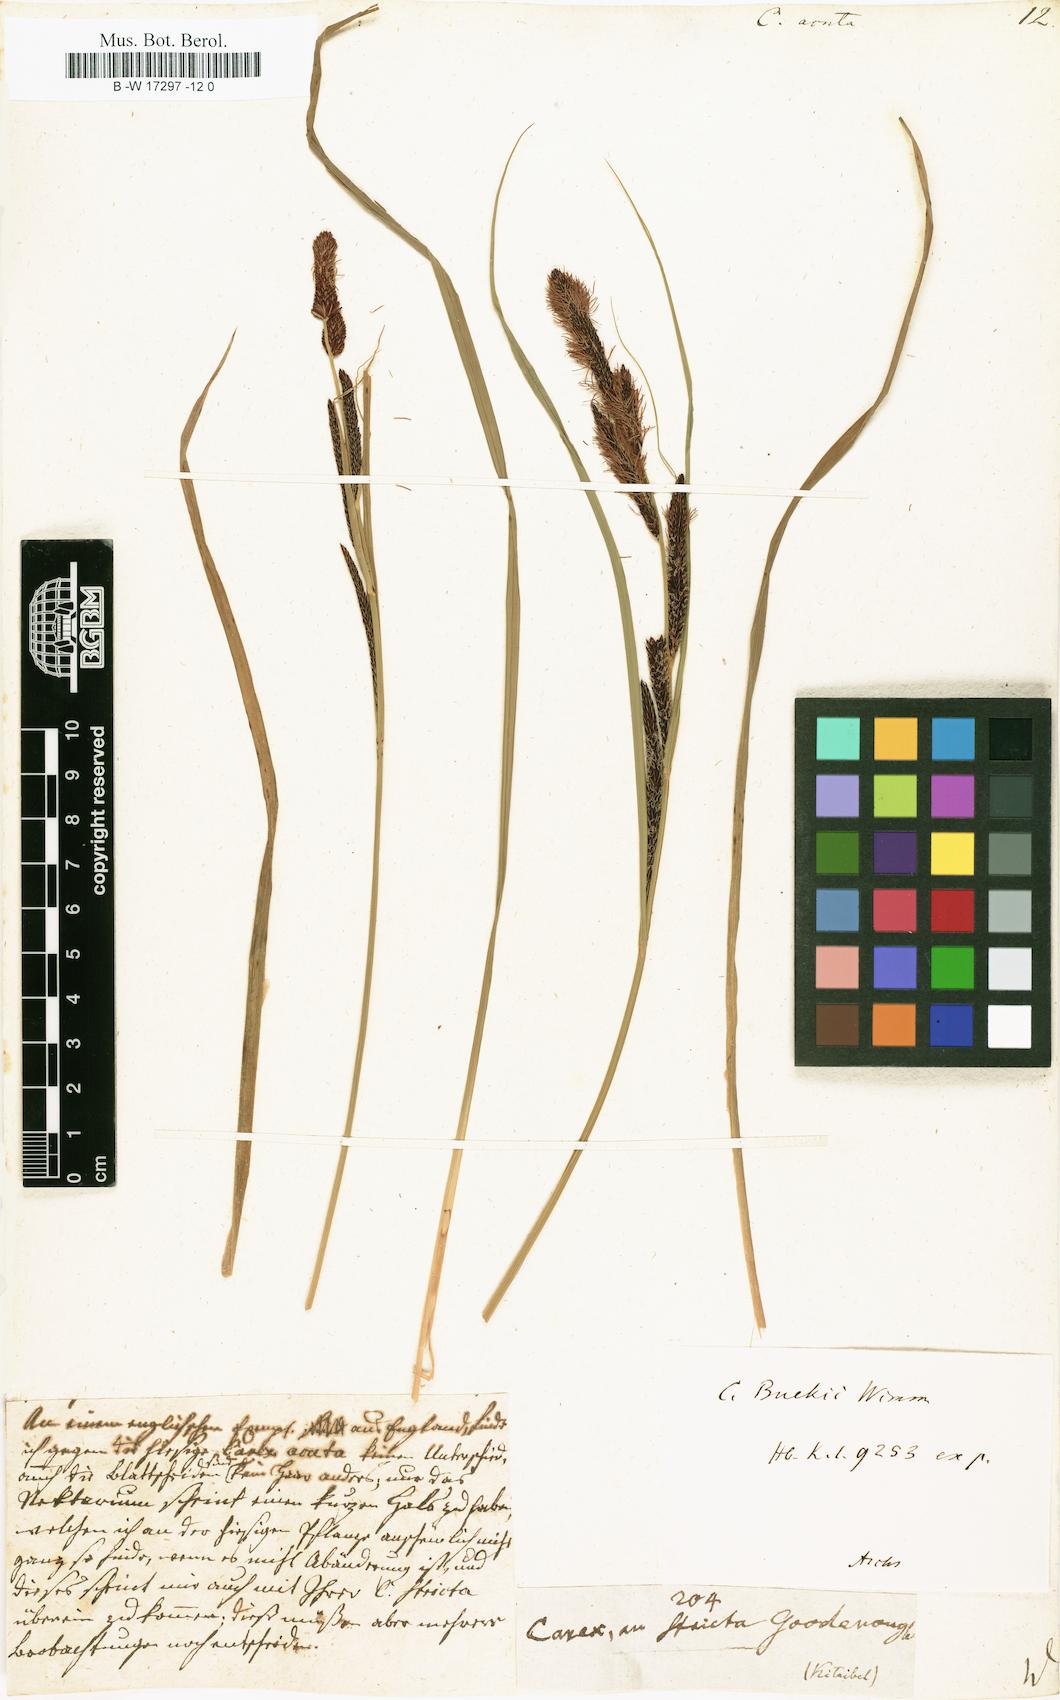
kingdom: Plantae
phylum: Tracheophyta
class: Liliopsida
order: Poales
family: Cyperaceae
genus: Carex
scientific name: Carex acuta
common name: Slender tufted-sedge
